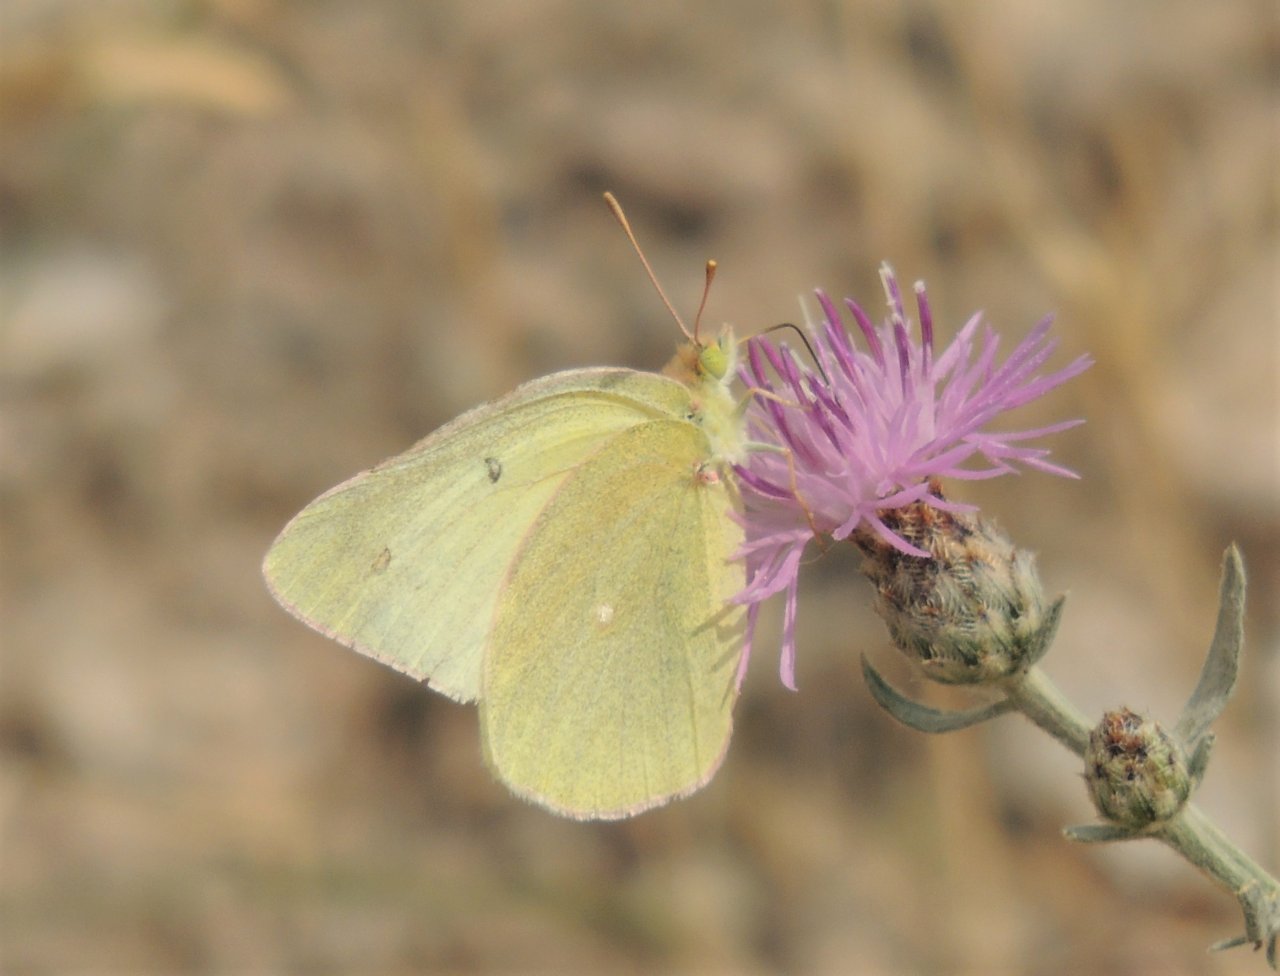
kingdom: Animalia
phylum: Arthropoda
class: Insecta
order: Lepidoptera
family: Pieridae
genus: Colias
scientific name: Colias alexandra
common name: Queen Alexandra's Sulphur
